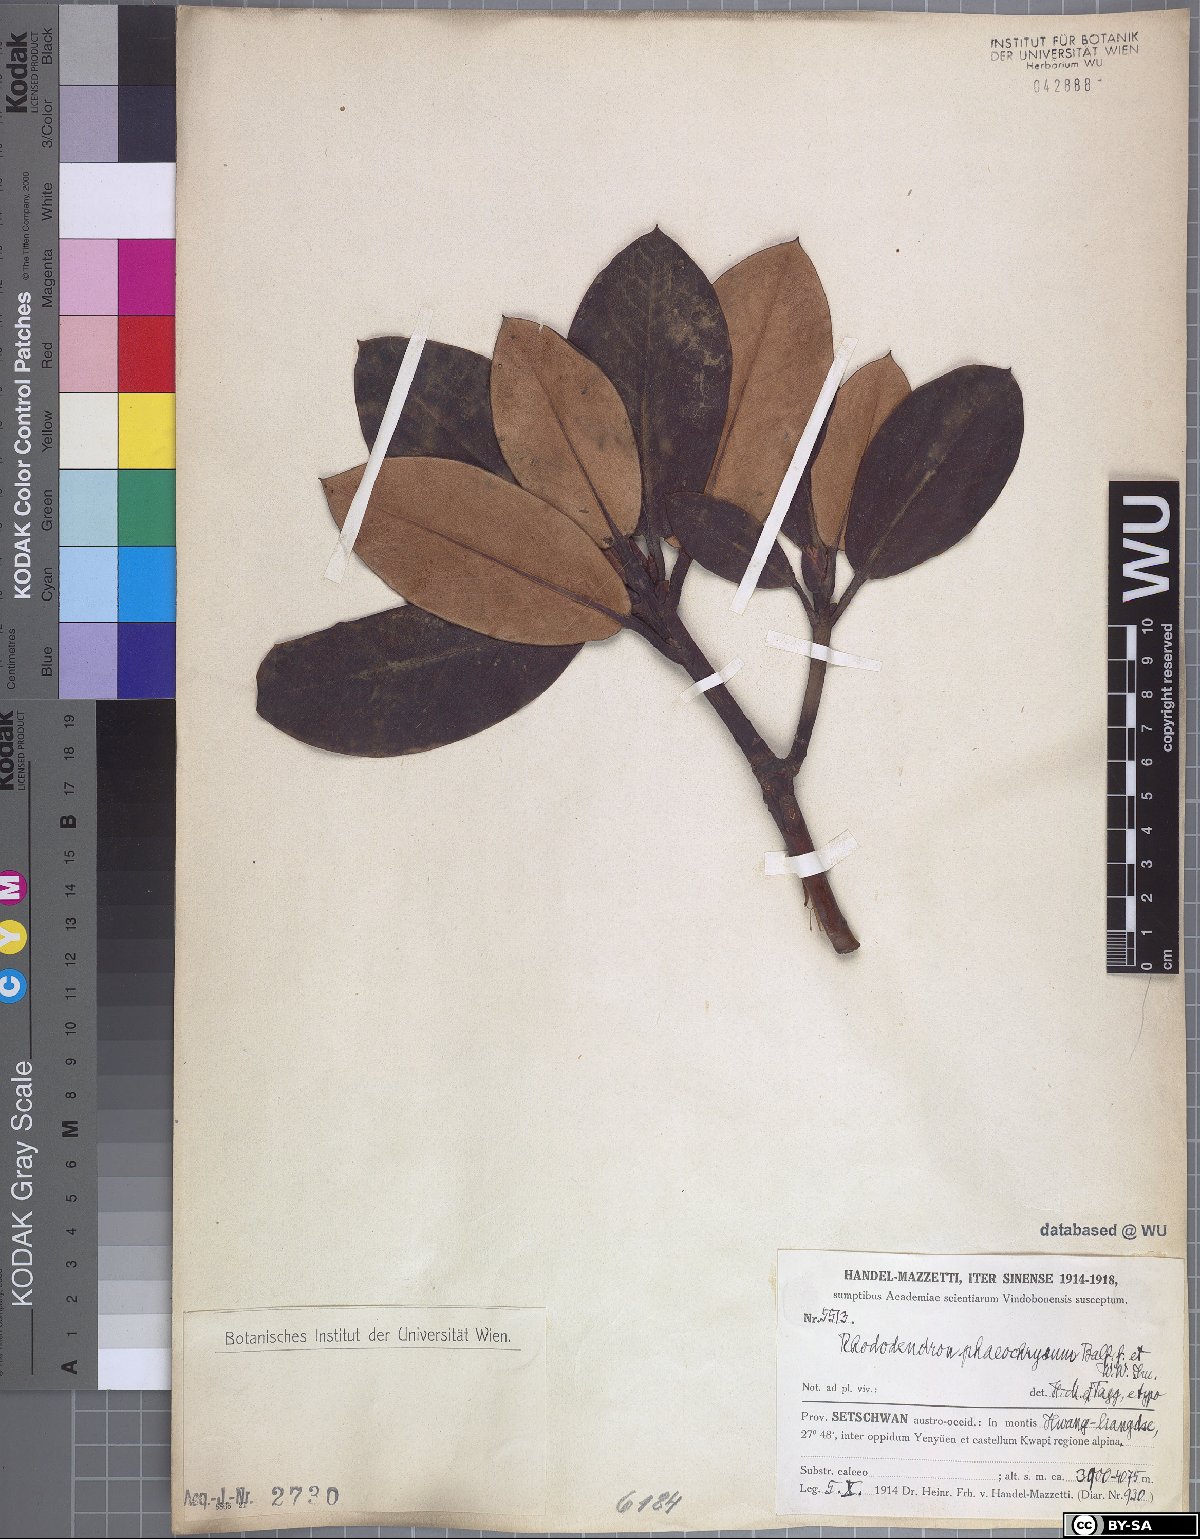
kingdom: Plantae
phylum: Tracheophyta
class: Magnoliopsida
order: Ericales
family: Ericaceae
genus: Rhododendron
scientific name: Rhododendron phaeochrysum
